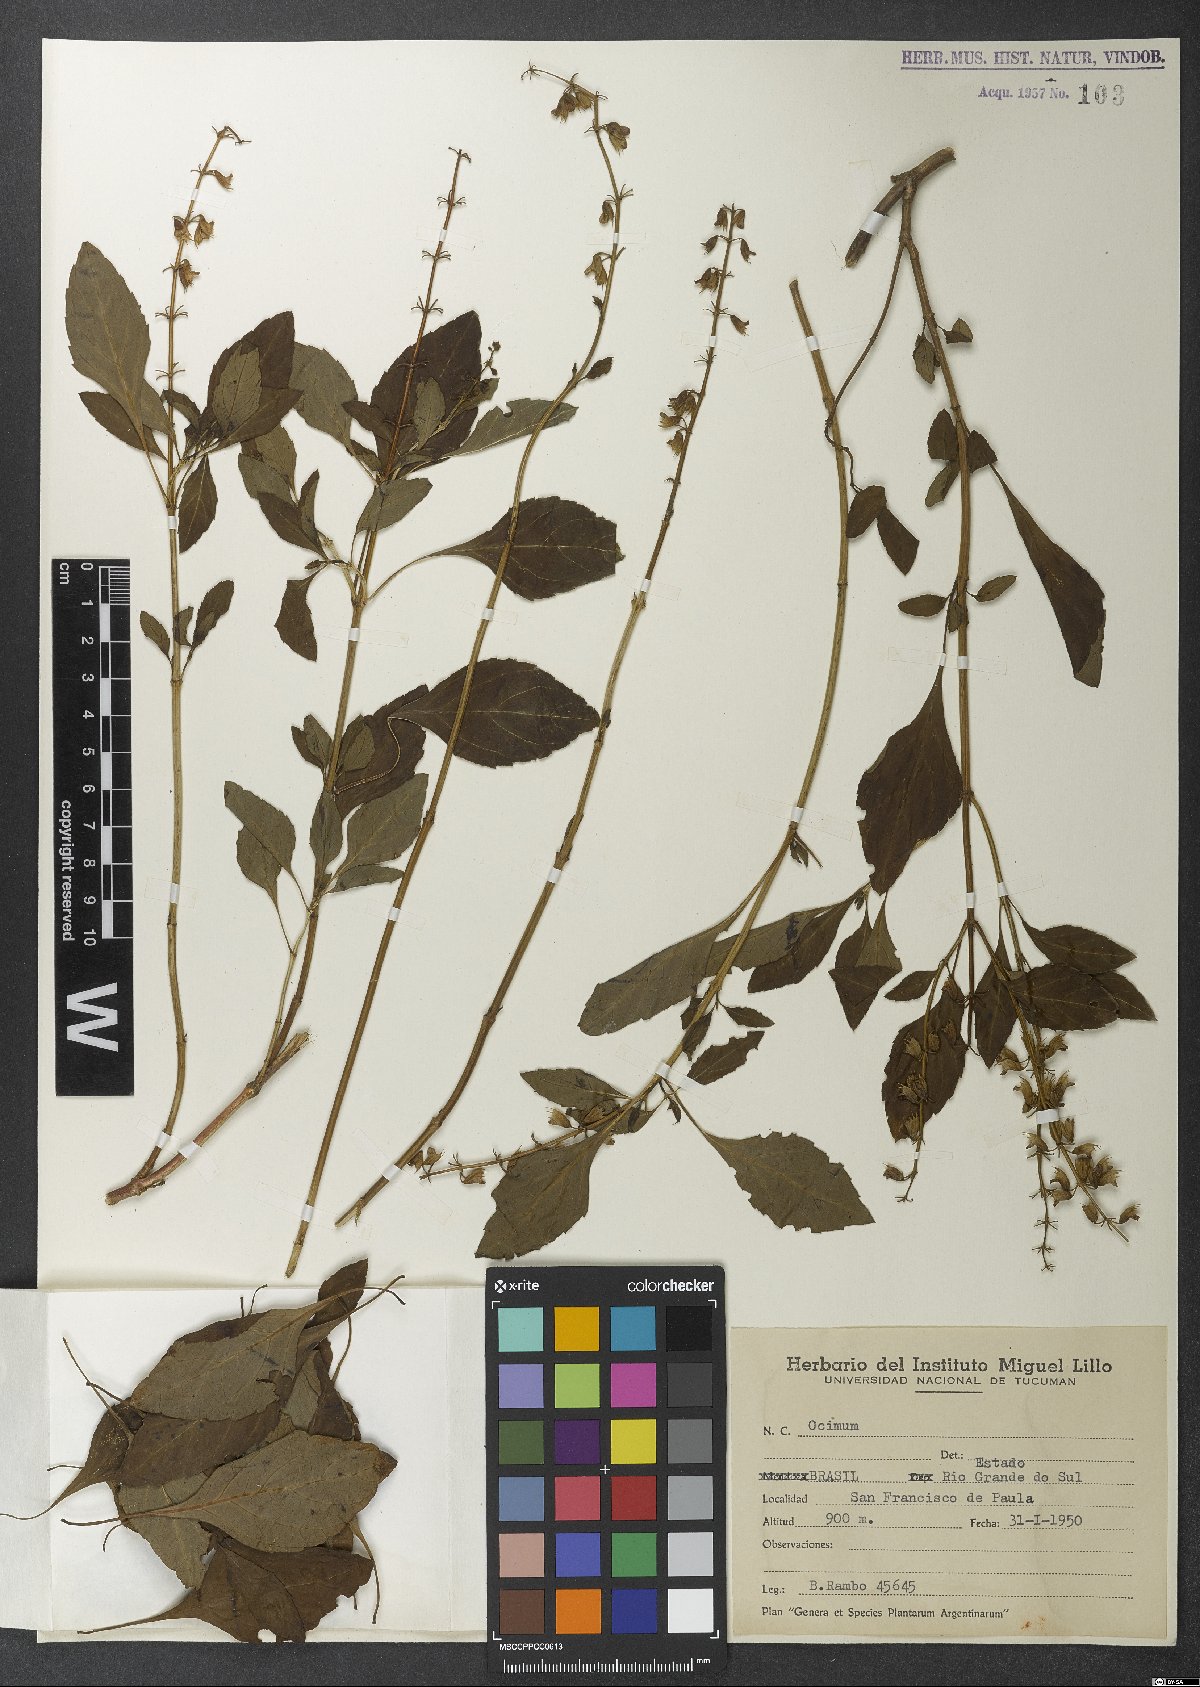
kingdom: Plantae
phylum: Tracheophyta
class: Magnoliopsida
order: Lamiales
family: Lamiaceae
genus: Ocimum
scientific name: Ocimum
